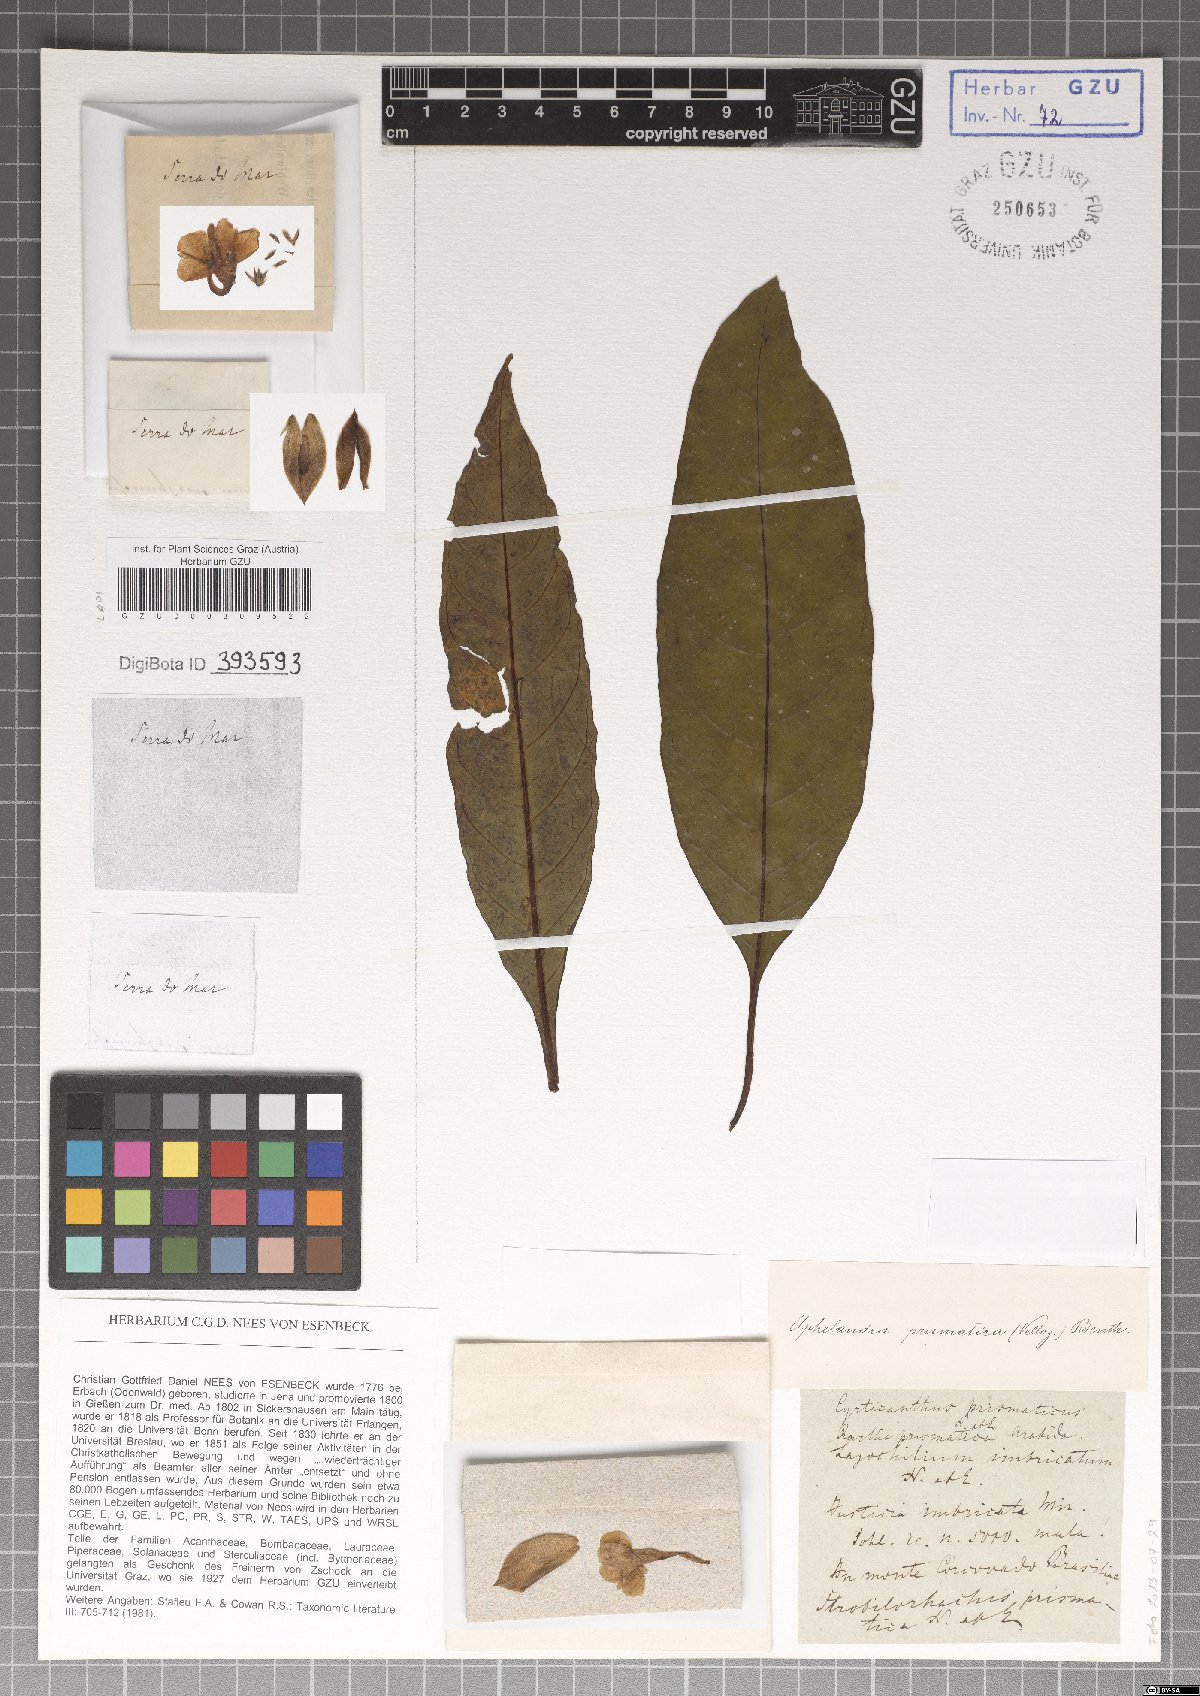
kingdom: Plantae
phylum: Tracheophyta
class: Magnoliopsida
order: Lamiales
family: Acanthaceae
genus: Aphelandra
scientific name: Aphelandra prismatica
